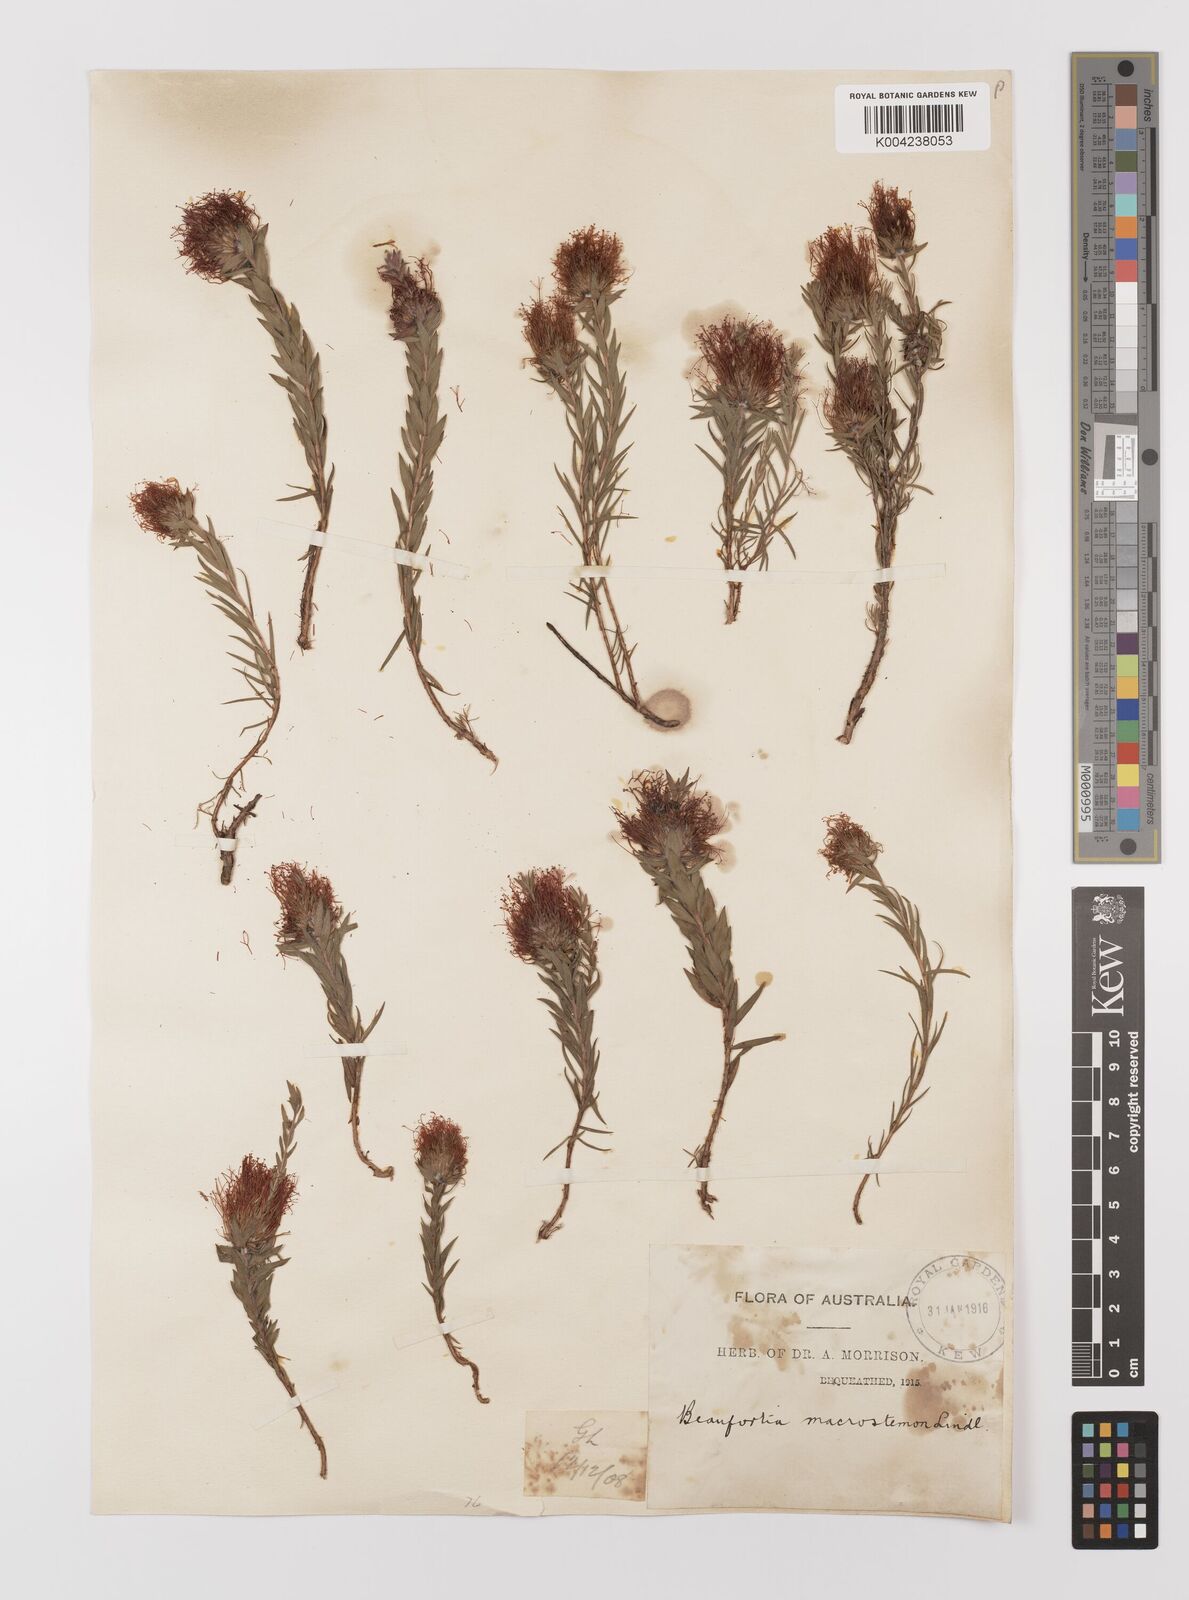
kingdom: Plantae
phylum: Tracheophyta
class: Magnoliopsida
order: Myrtales
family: Myrtaceae
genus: Melaleuca
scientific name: Melaleuca macrostemon
